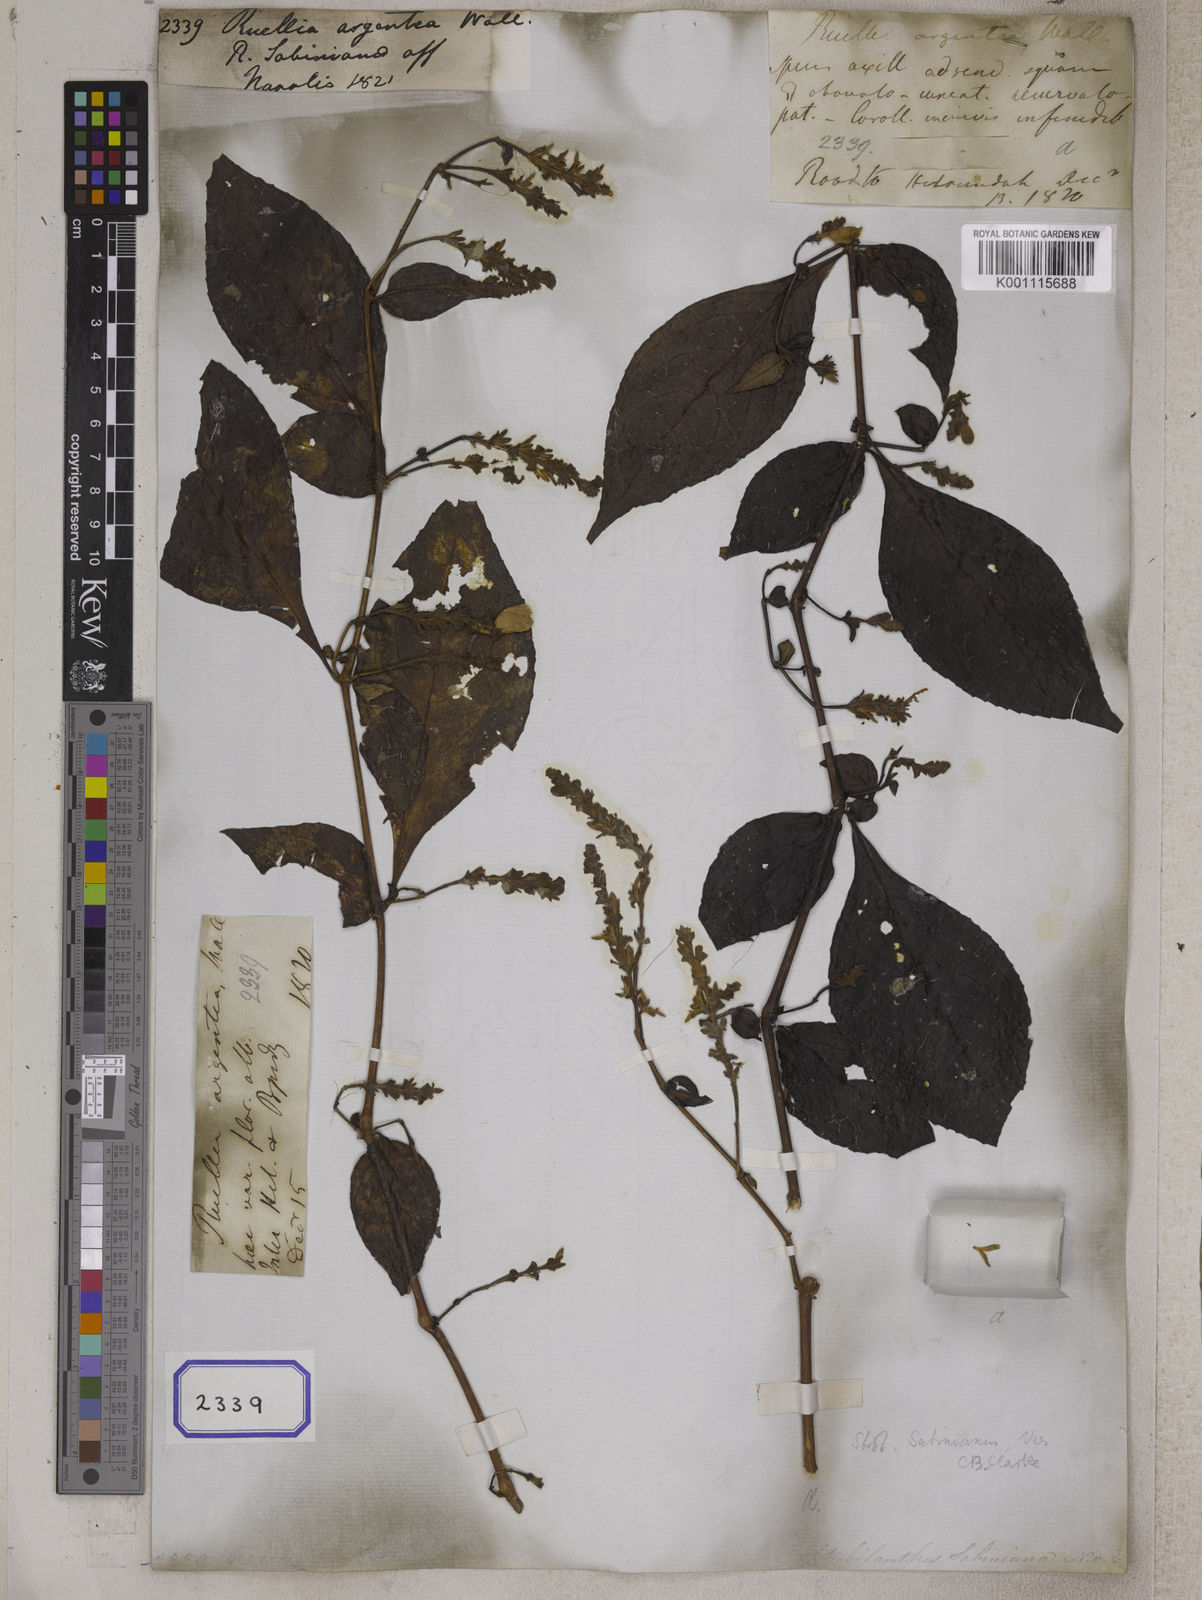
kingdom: Plantae
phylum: Tracheophyta
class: Magnoliopsida
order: Lamiales
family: Acanthaceae
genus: Strobilanthes
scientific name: Strobilanthes saccata
